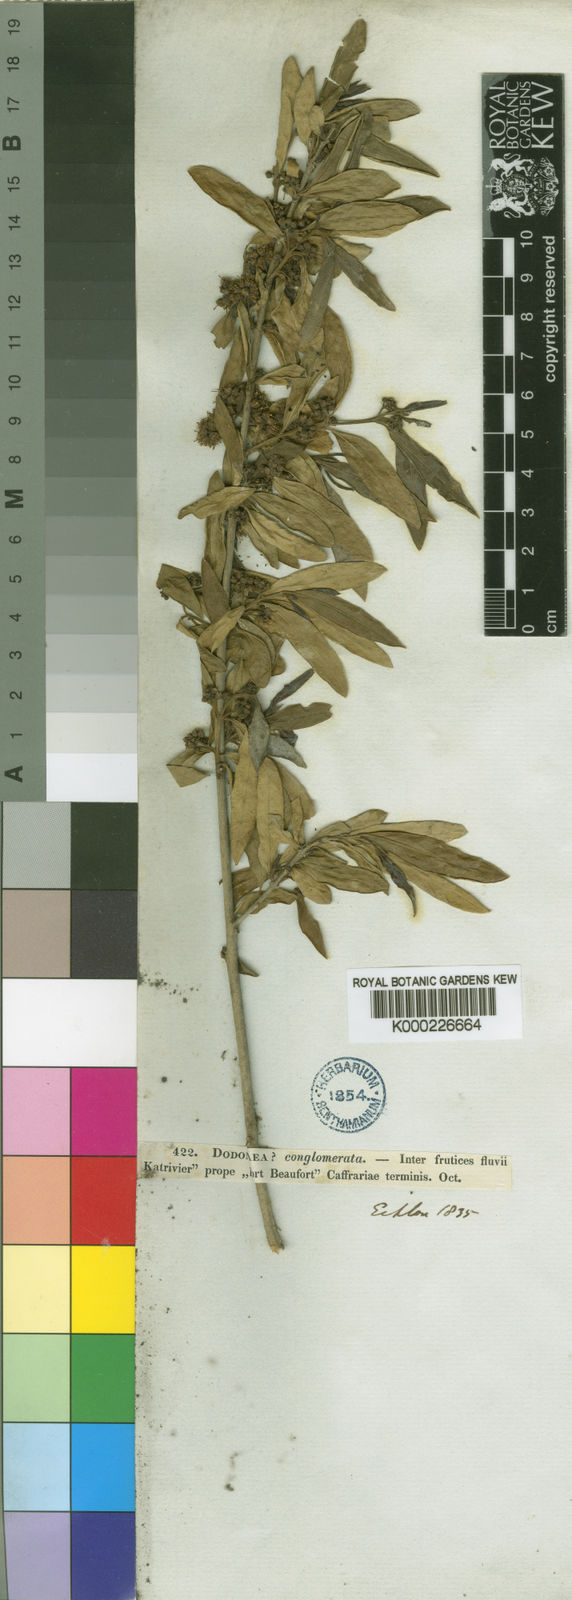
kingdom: Plantae
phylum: Tracheophyta
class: Magnoliopsida
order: Myrtales
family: Combretaceae
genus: Combretum
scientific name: Combretum caffrum
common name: Cape bushwillow
